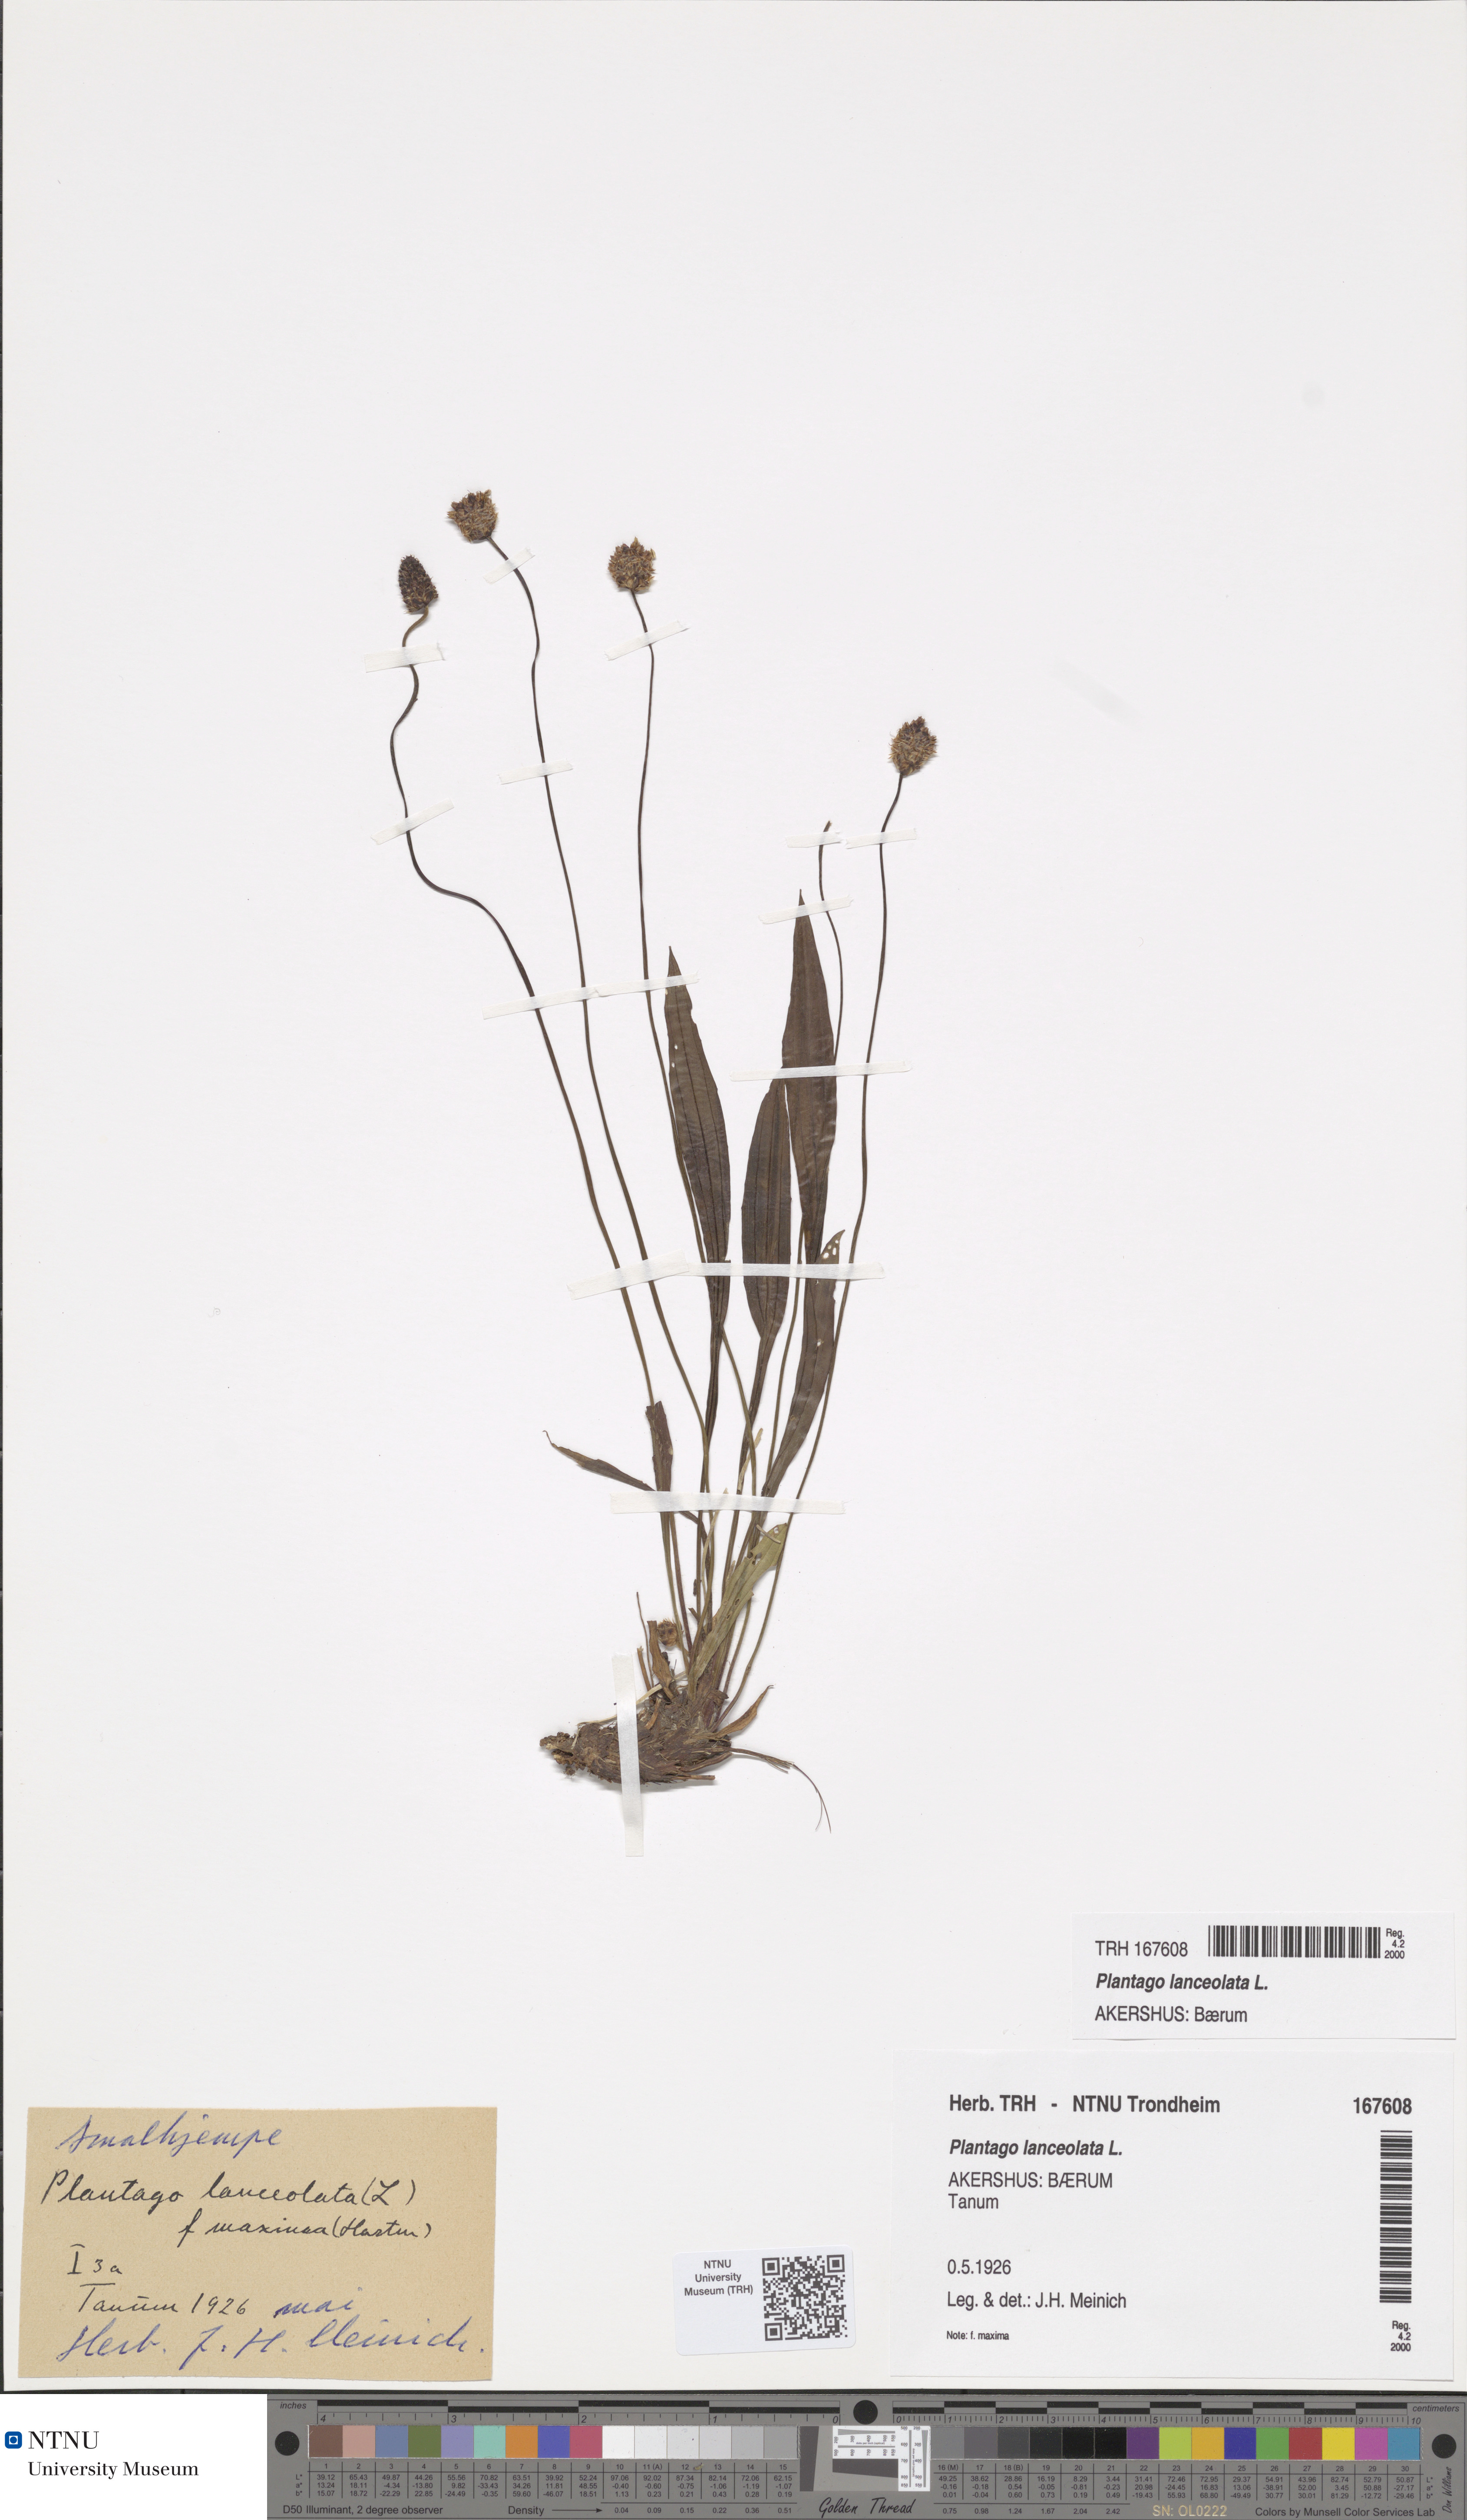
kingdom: Plantae
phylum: Tracheophyta
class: Magnoliopsida
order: Lamiales
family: Plantaginaceae
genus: Plantago
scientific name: Plantago lanceolata
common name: Ribwort plantain
